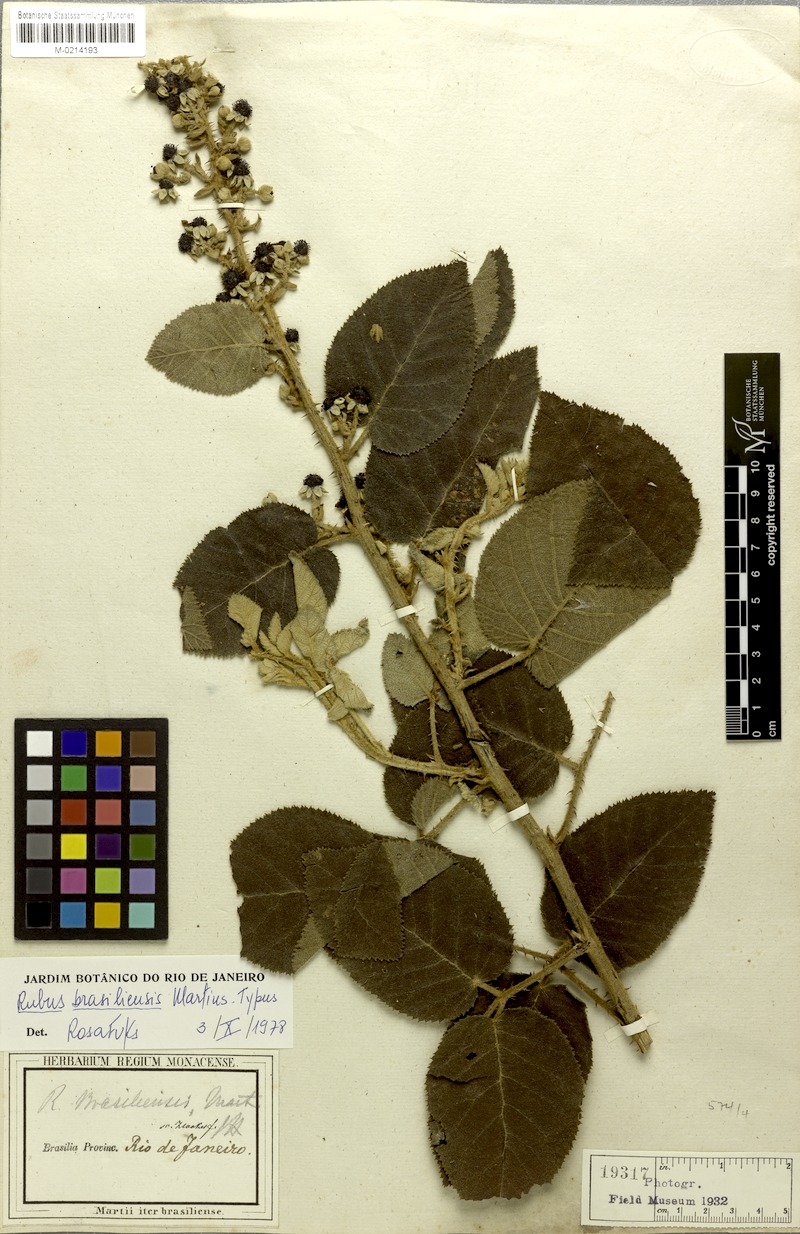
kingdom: Plantae
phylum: Tracheophyta
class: Magnoliopsida
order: Rosales
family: Rosaceae
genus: Rubus
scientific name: Rubus brasiliensis
